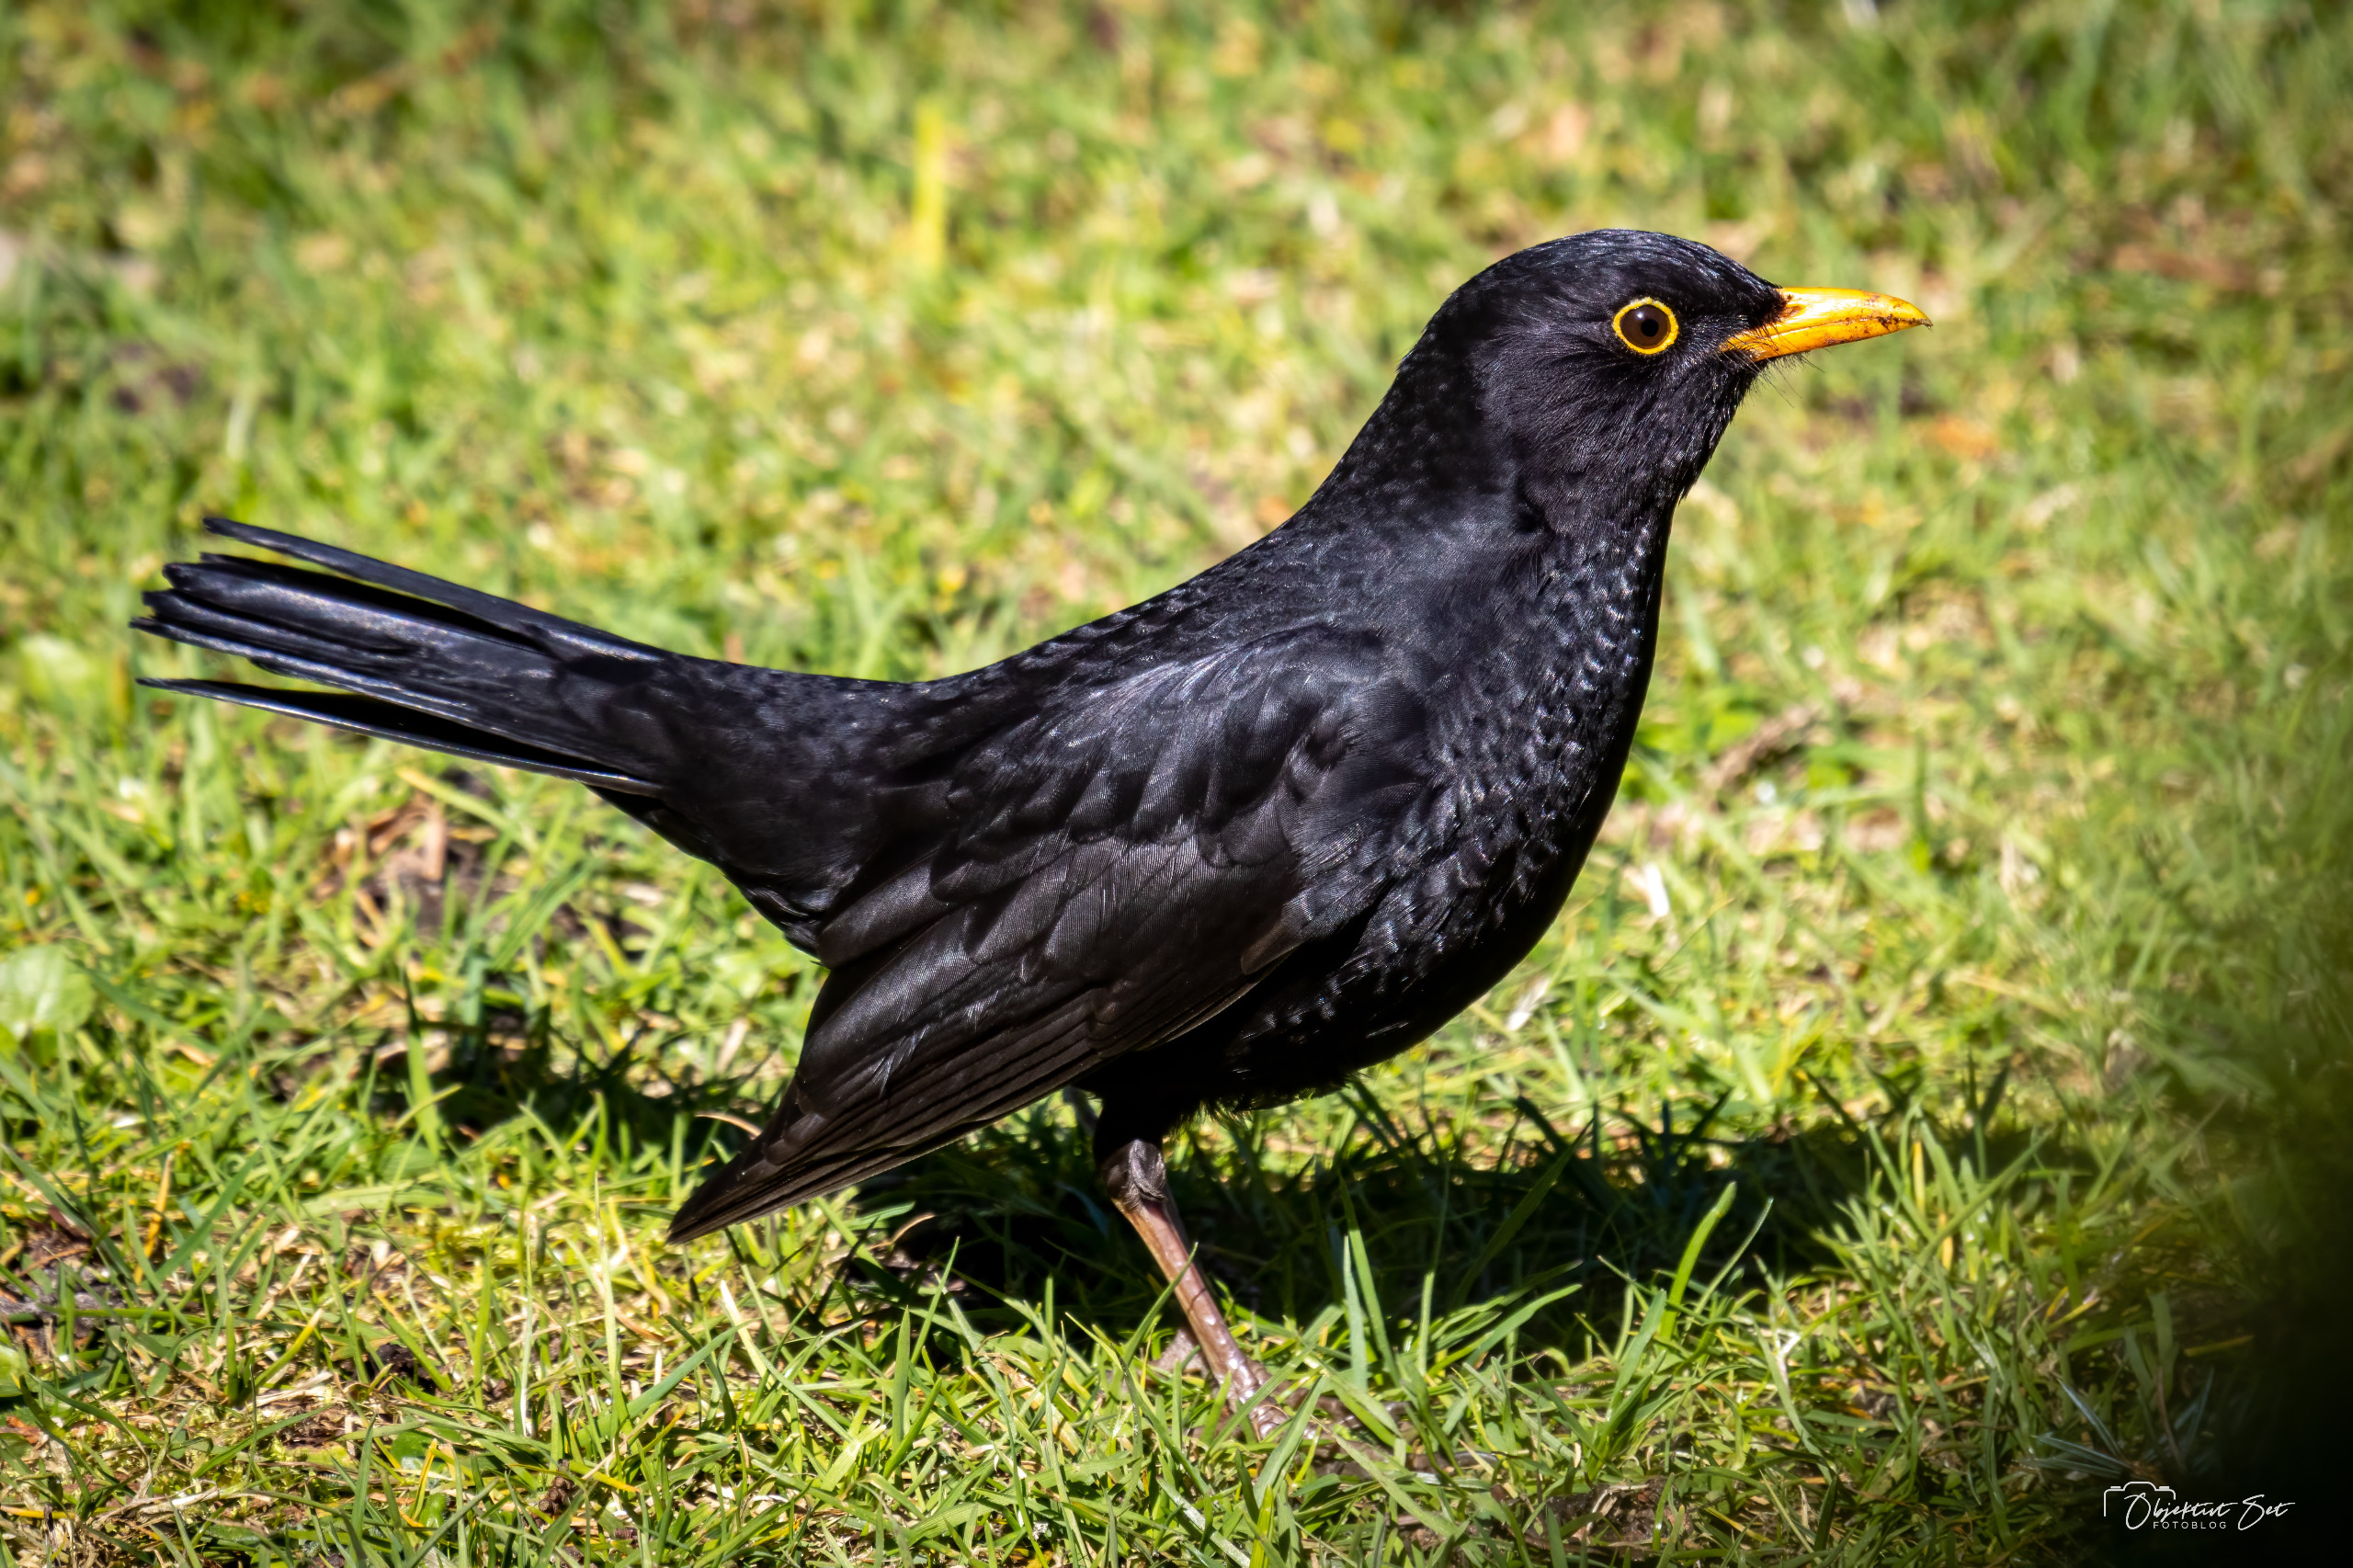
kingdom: Animalia
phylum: Chordata
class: Aves
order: Passeriformes
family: Turdidae
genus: Turdus
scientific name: Turdus merula
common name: Solsort
